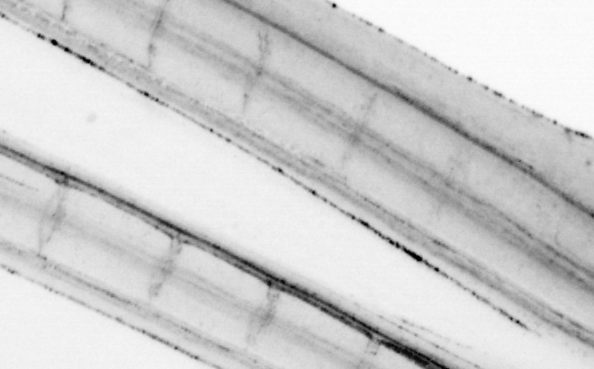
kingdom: Animalia
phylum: Chordata
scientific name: Chordata
